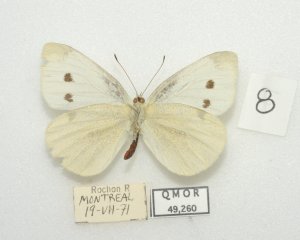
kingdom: Animalia
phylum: Arthropoda
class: Insecta
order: Lepidoptera
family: Pieridae
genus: Pieris
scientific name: Pieris rapae
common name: Cabbage White
